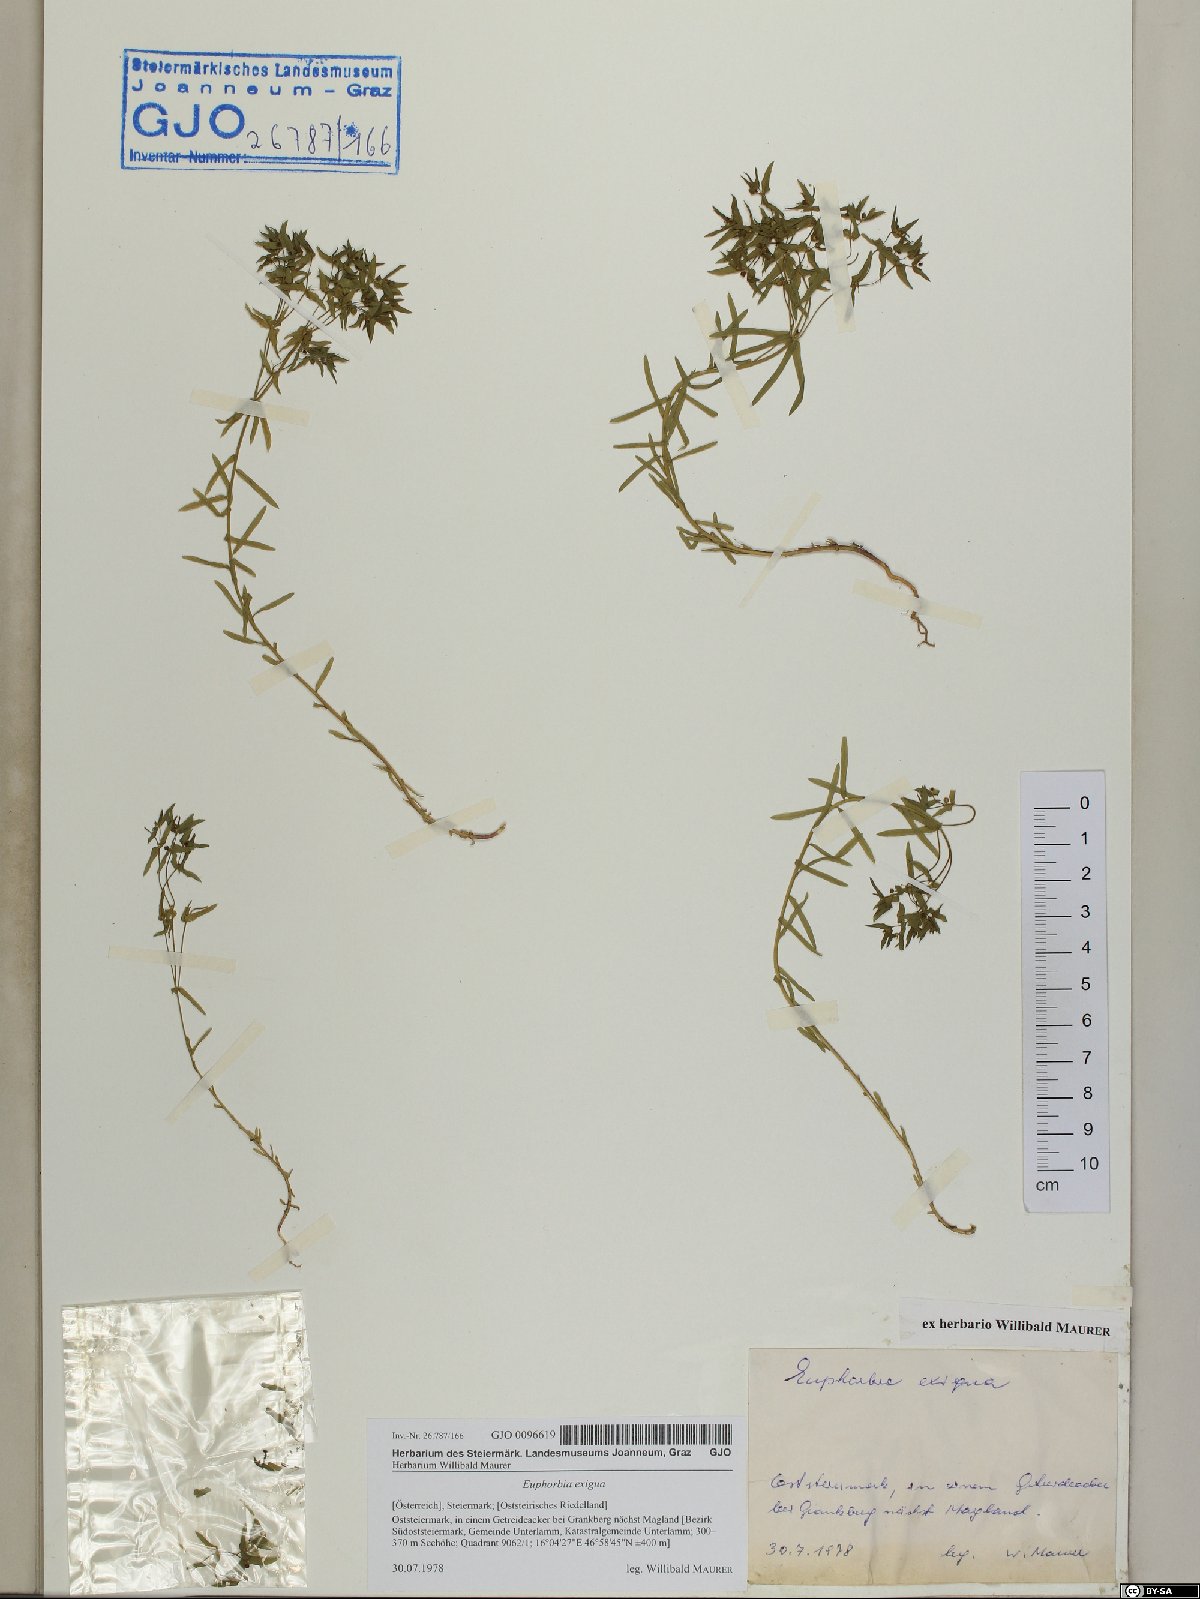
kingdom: Plantae
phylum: Tracheophyta
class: Magnoliopsida
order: Malpighiales
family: Euphorbiaceae
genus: Euphorbia
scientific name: Euphorbia exigua
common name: Dwarf spurge
